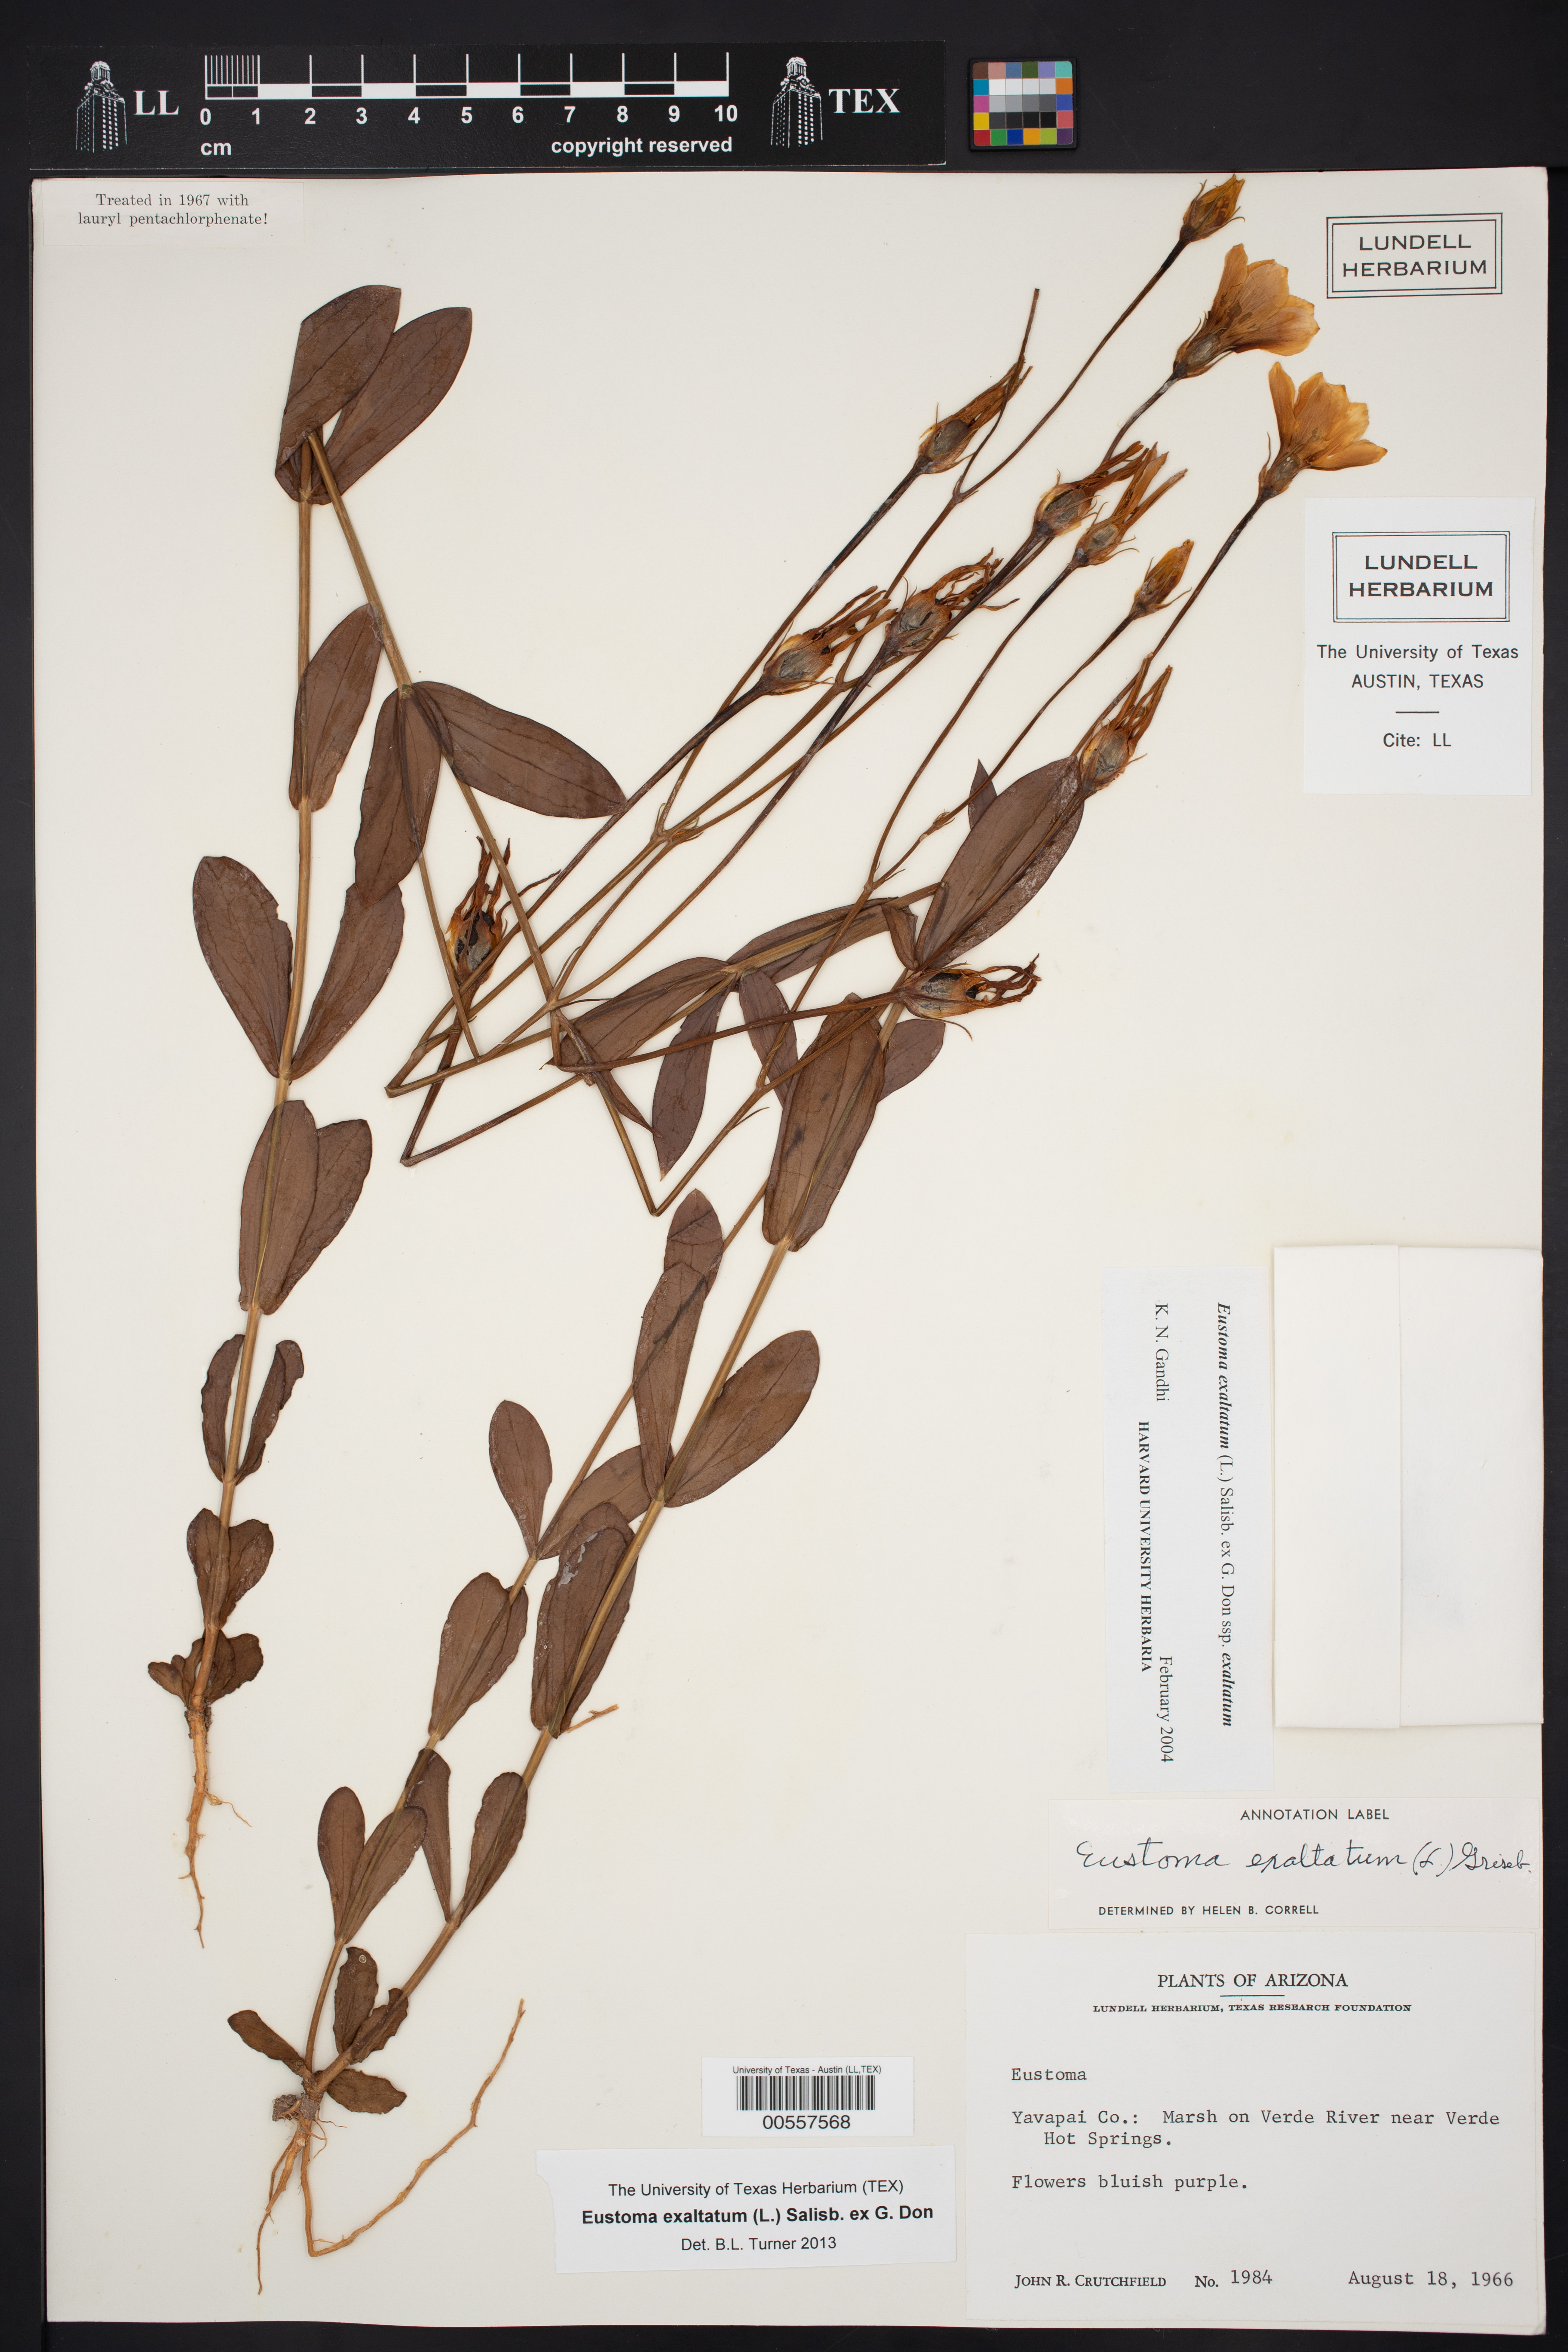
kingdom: Plantae
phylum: Tracheophyta
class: Magnoliopsida
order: Gentianales
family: Gentianaceae
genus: Eustoma
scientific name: Eustoma exaltatum
